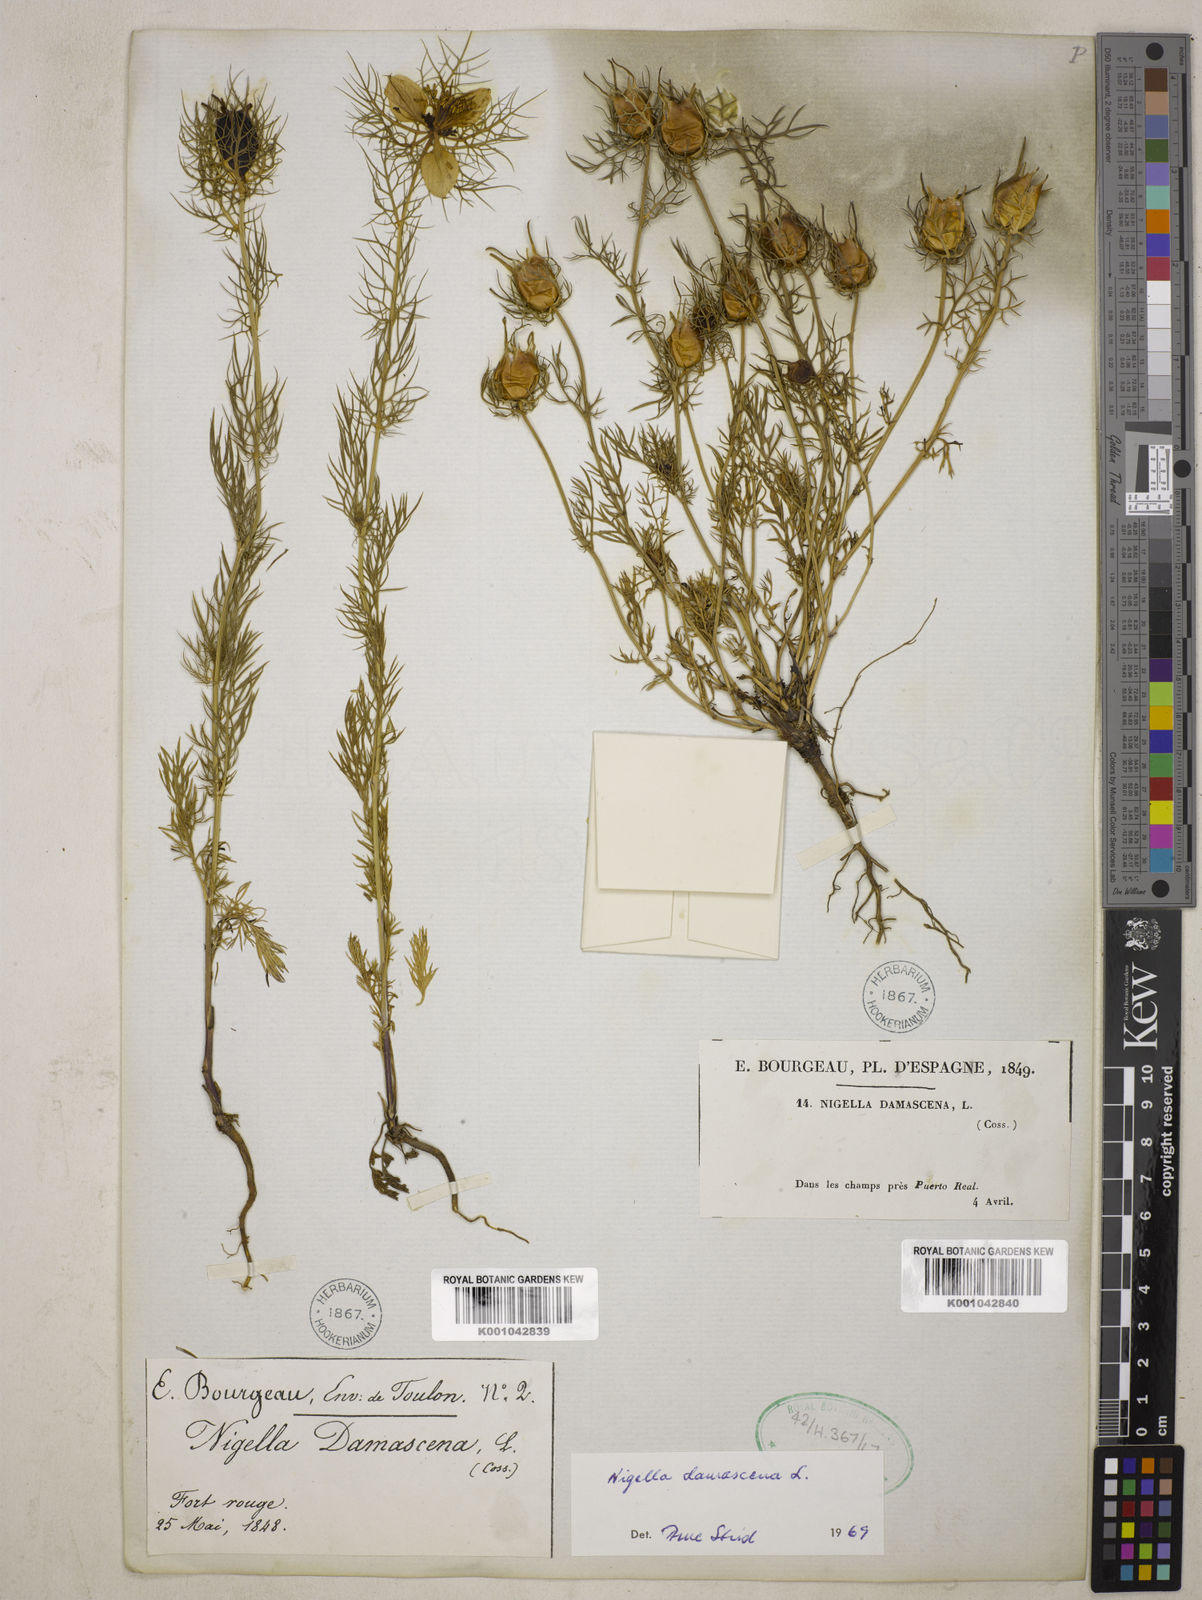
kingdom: Plantae
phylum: Tracheophyta
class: Magnoliopsida
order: Ranunculales
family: Ranunculaceae
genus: Nigella
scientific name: Nigella damascena
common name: Love-in-a-mist
